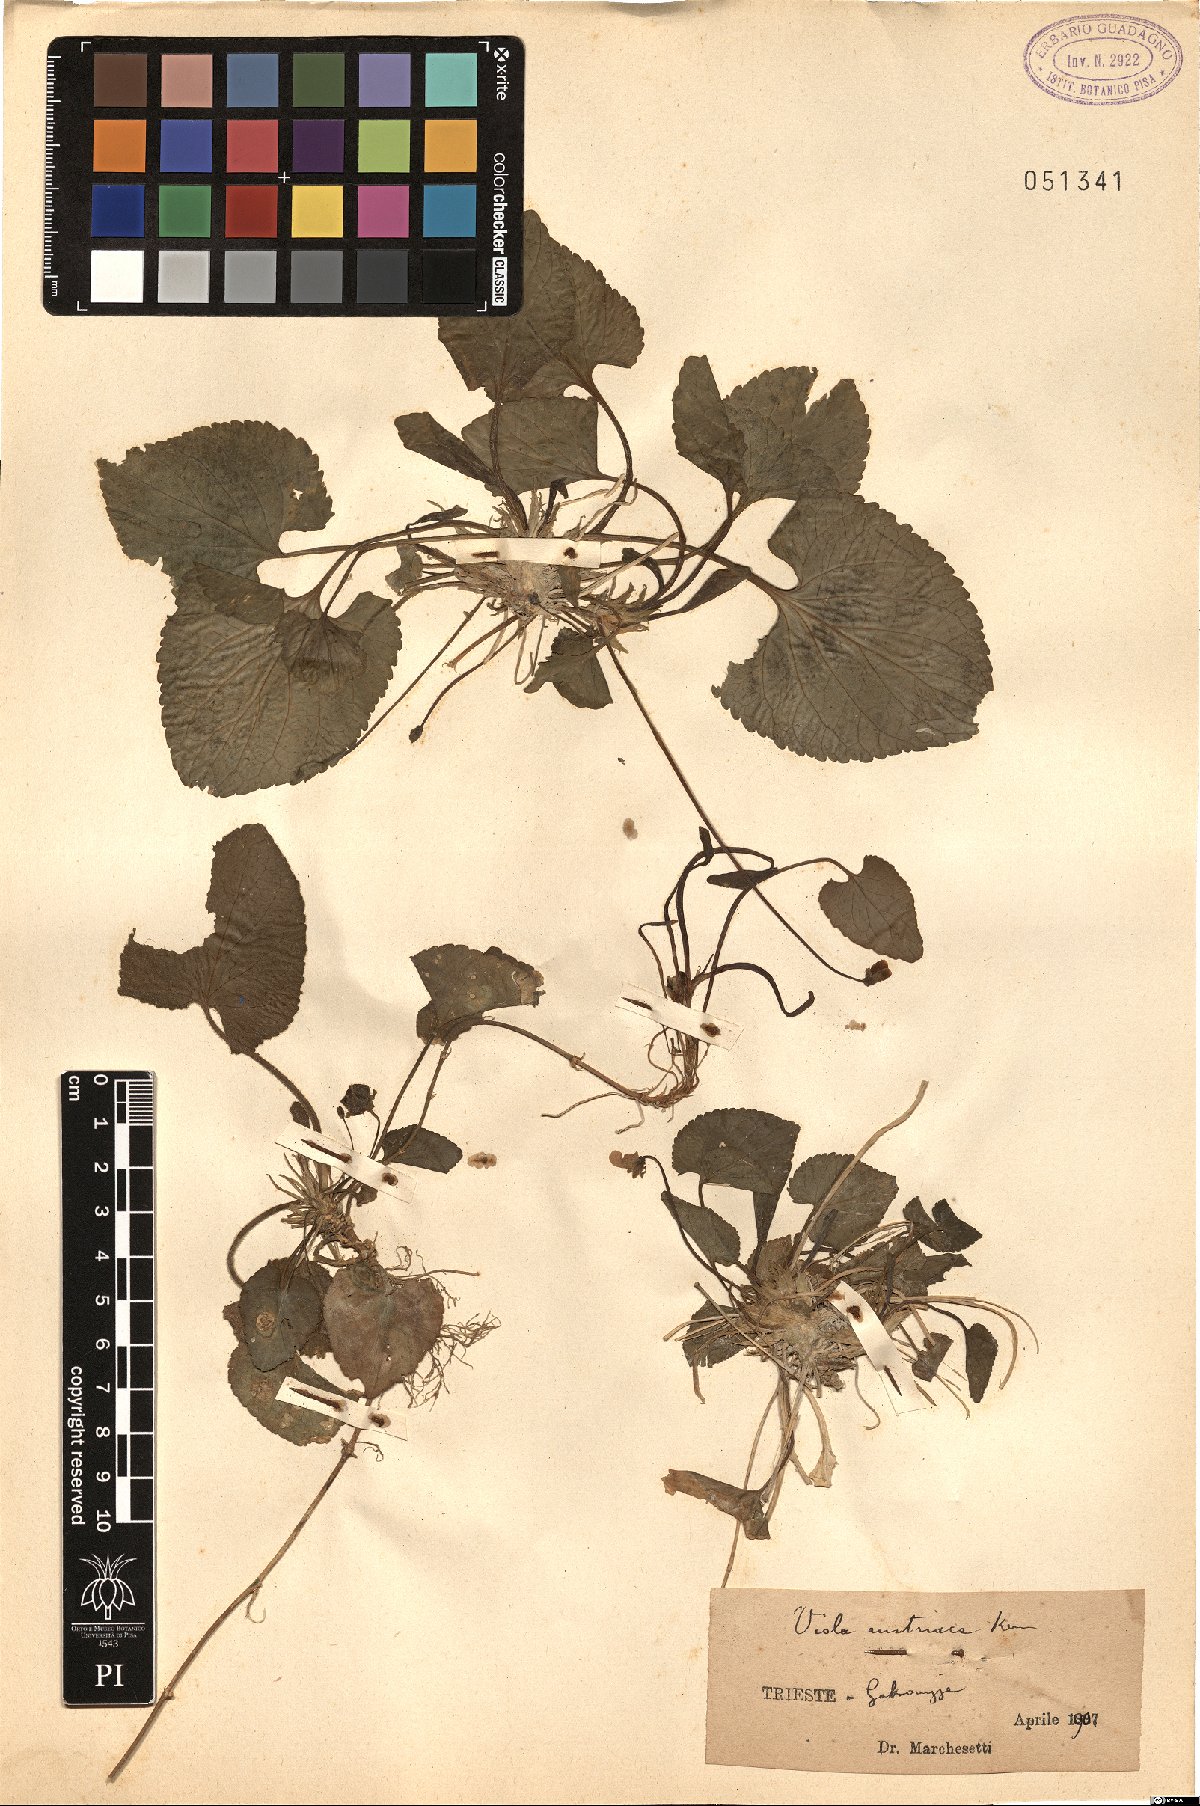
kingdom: Plantae
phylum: Tracheophyta
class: Magnoliopsida
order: Malpighiales
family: Violaceae
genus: Viola
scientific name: Viola suavis
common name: Russian violet
